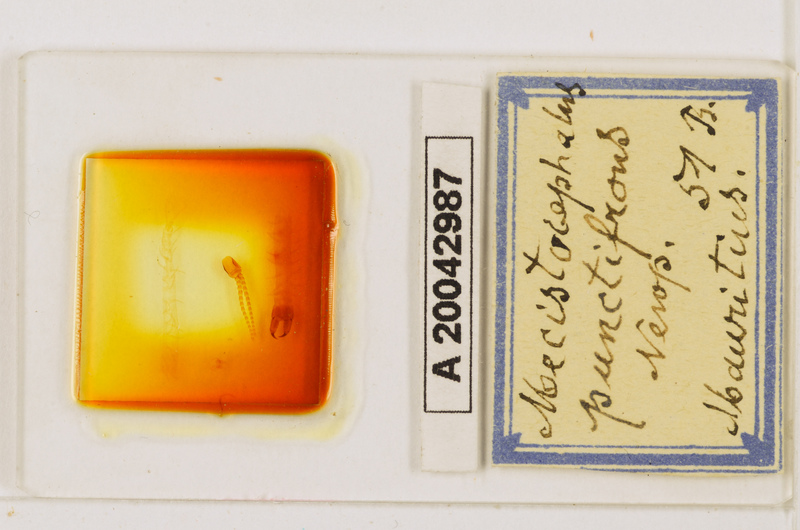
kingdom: Animalia
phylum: Arthropoda
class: Chilopoda
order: Geophilomorpha
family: Mecistocephalidae
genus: Mecistocephalus
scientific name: Mecistocephalus punctifrons
